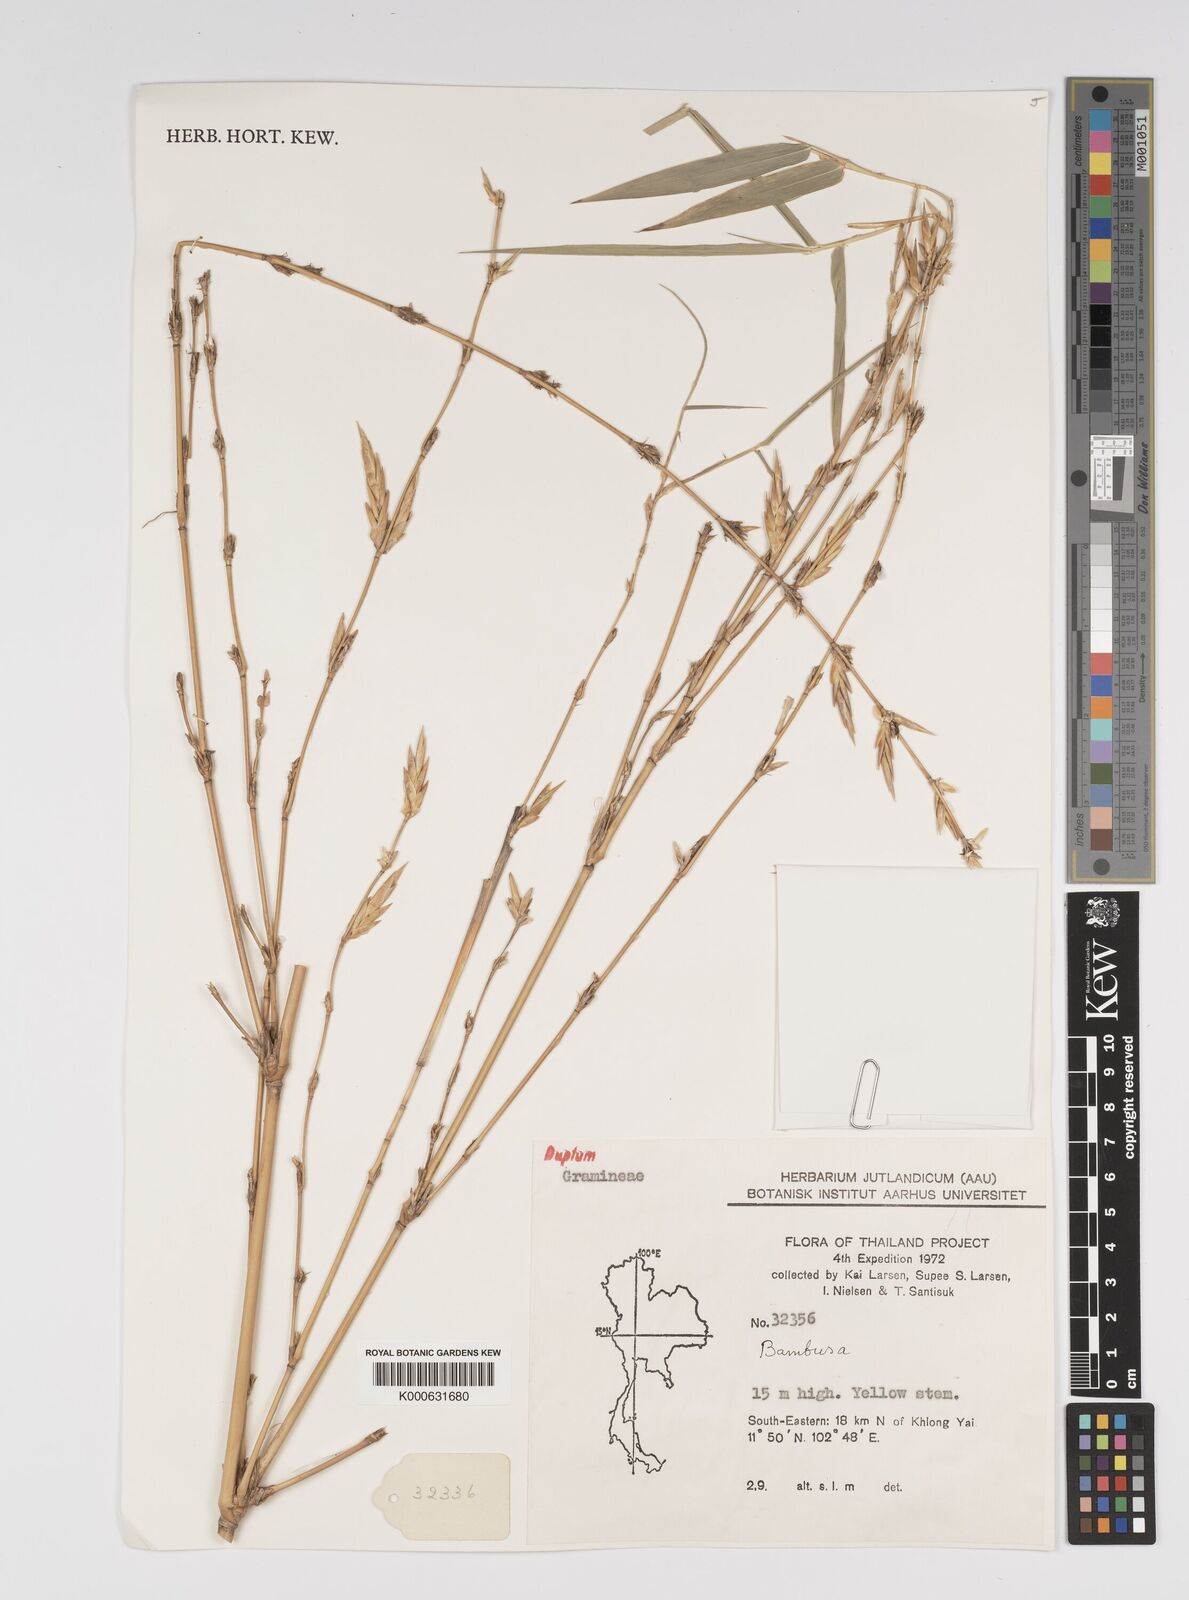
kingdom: Plantae
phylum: Tracheophyta
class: Liliopsida
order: Poales
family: Poaceae
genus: Bambusa
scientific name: Bambusa
